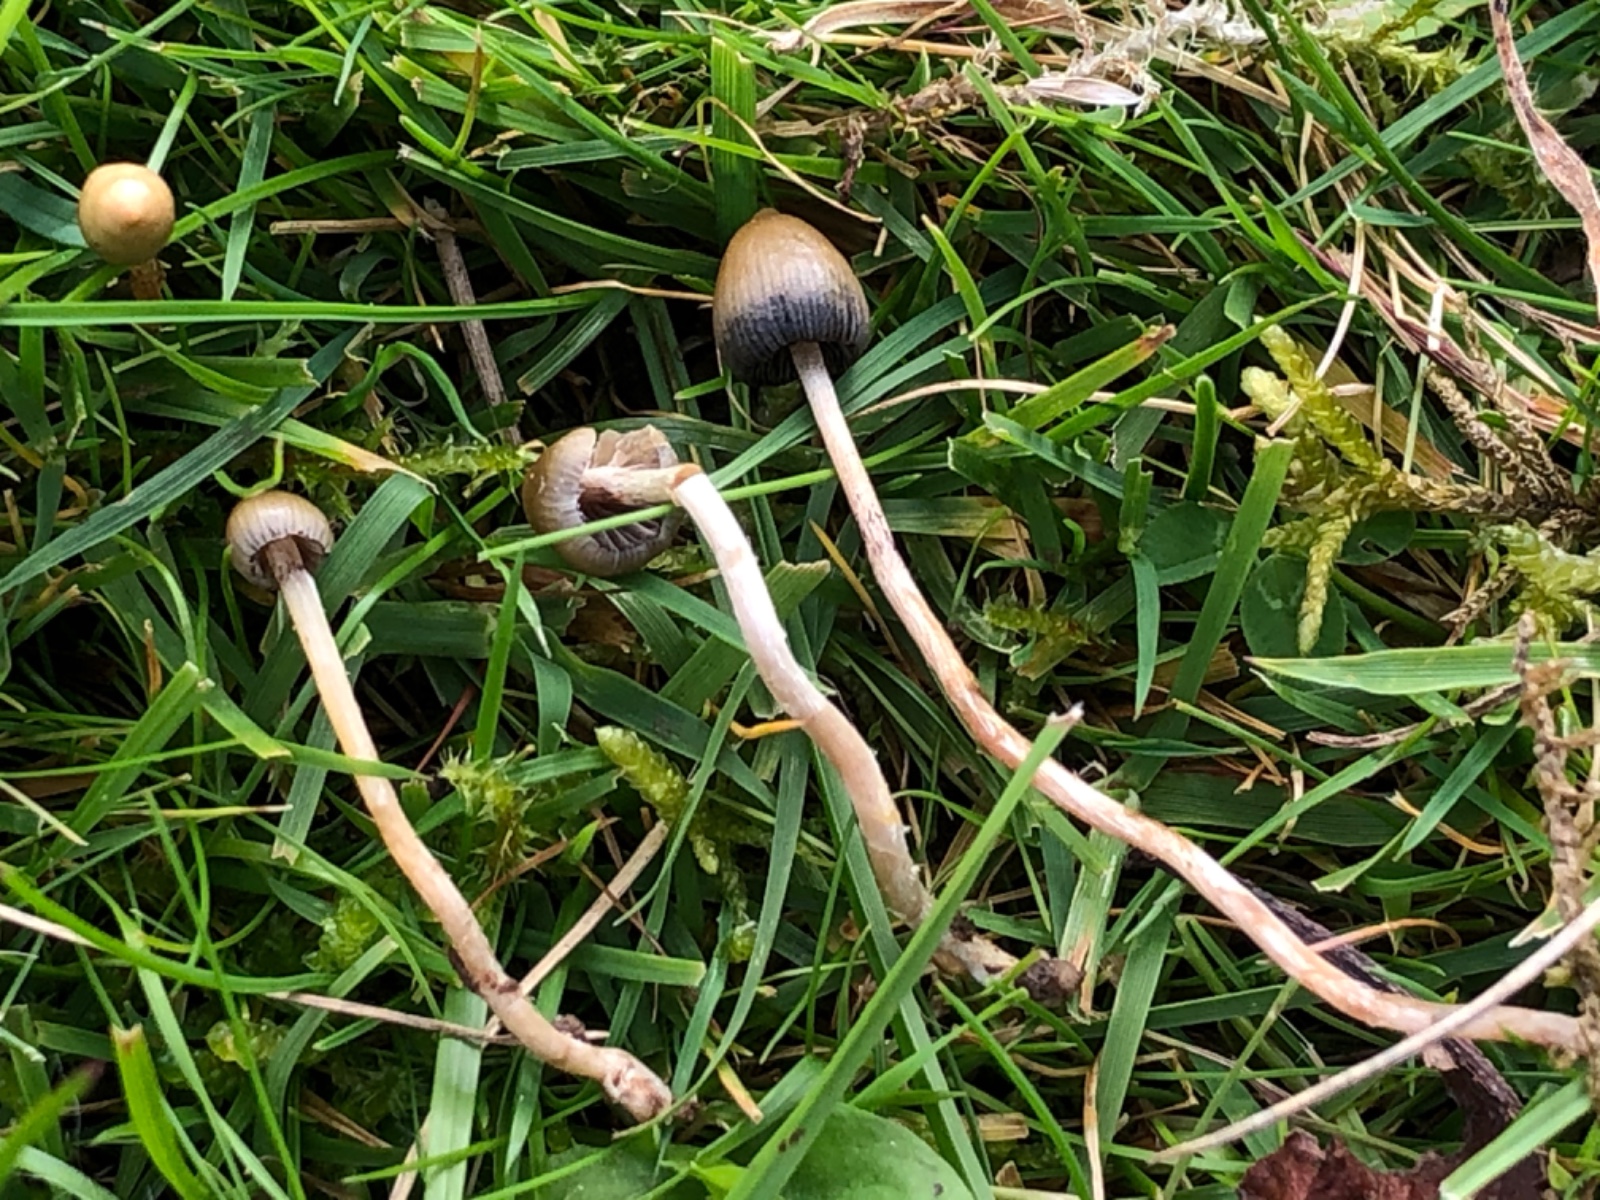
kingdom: Fungi
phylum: Basidiomycota
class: Agaricomycetes
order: Agaricales
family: Hymenogastraceae
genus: Psilocybe
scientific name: Psilocybe semilanceata
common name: spids nøgenhat
